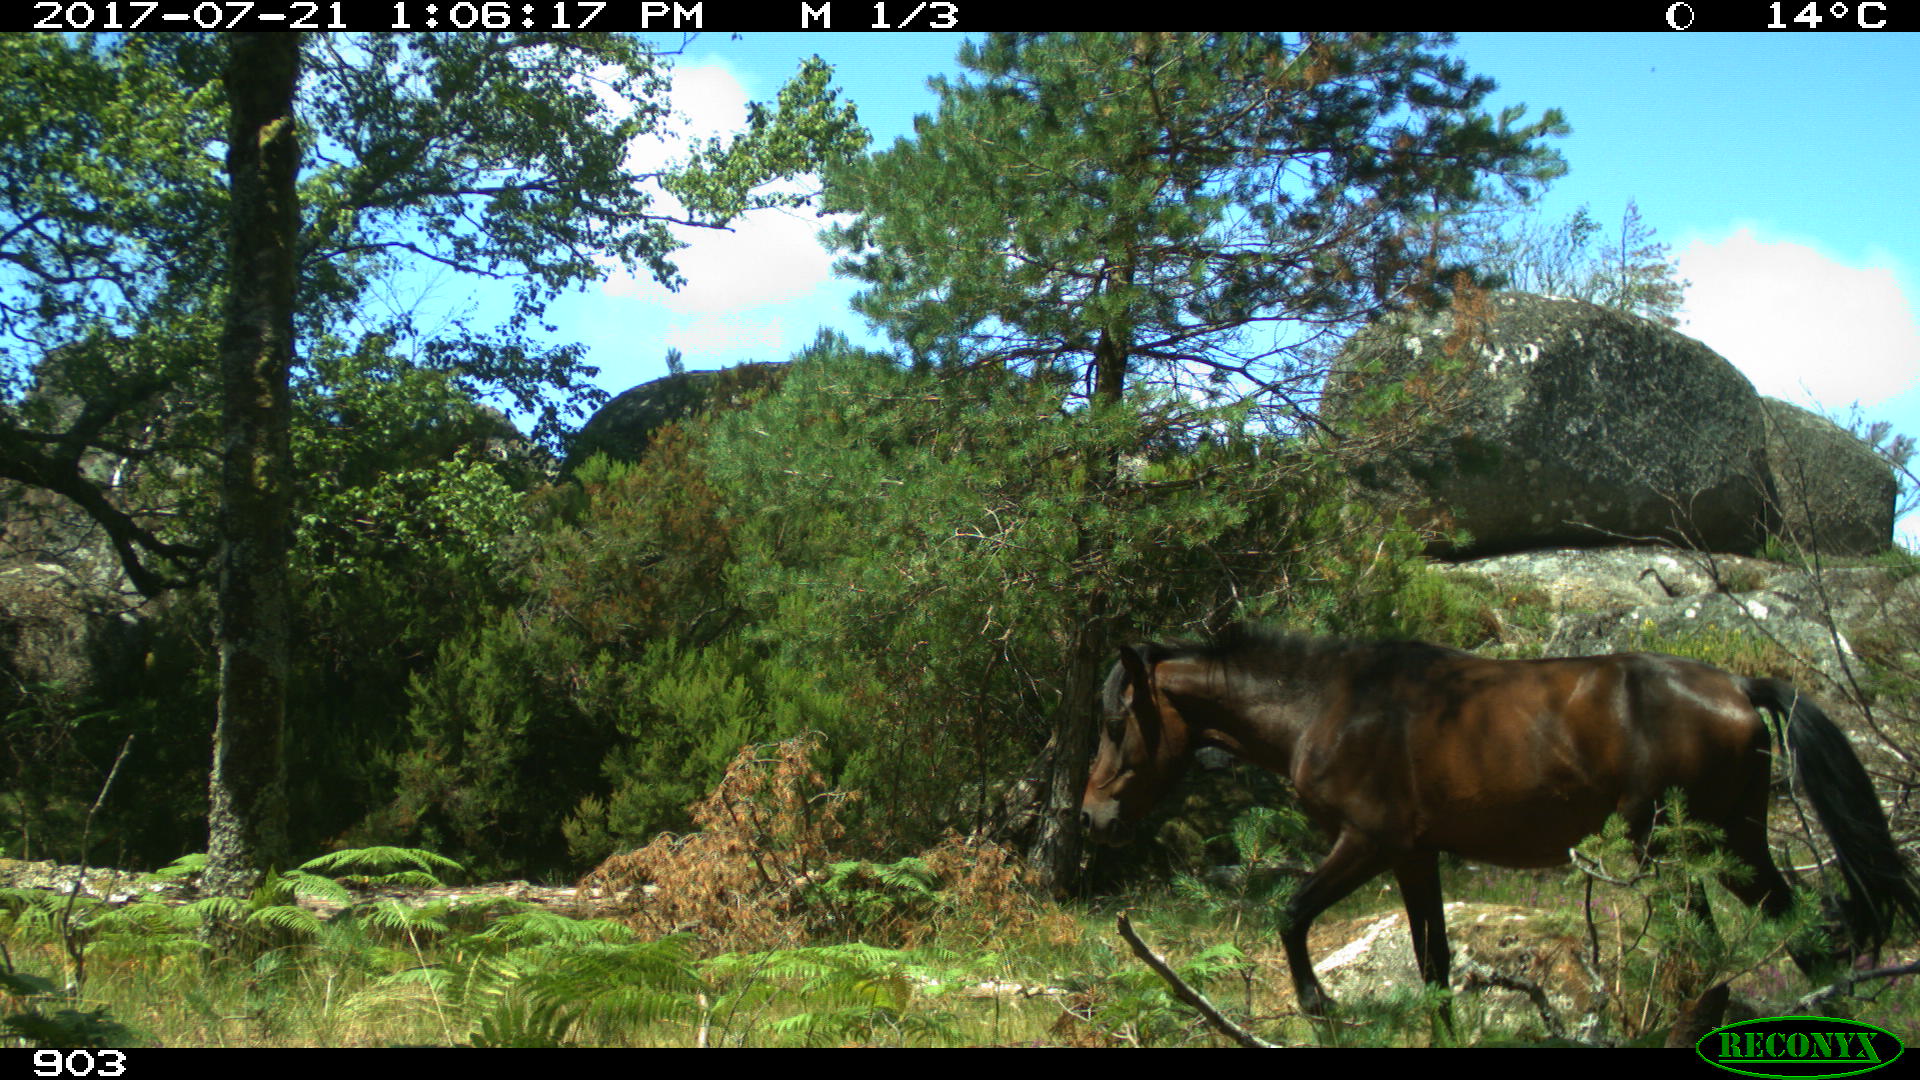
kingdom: Animalia
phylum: Chordata
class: Mammalia
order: Perissodactyla
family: Equidae
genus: Equus
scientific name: Equus caballus
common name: Horse
